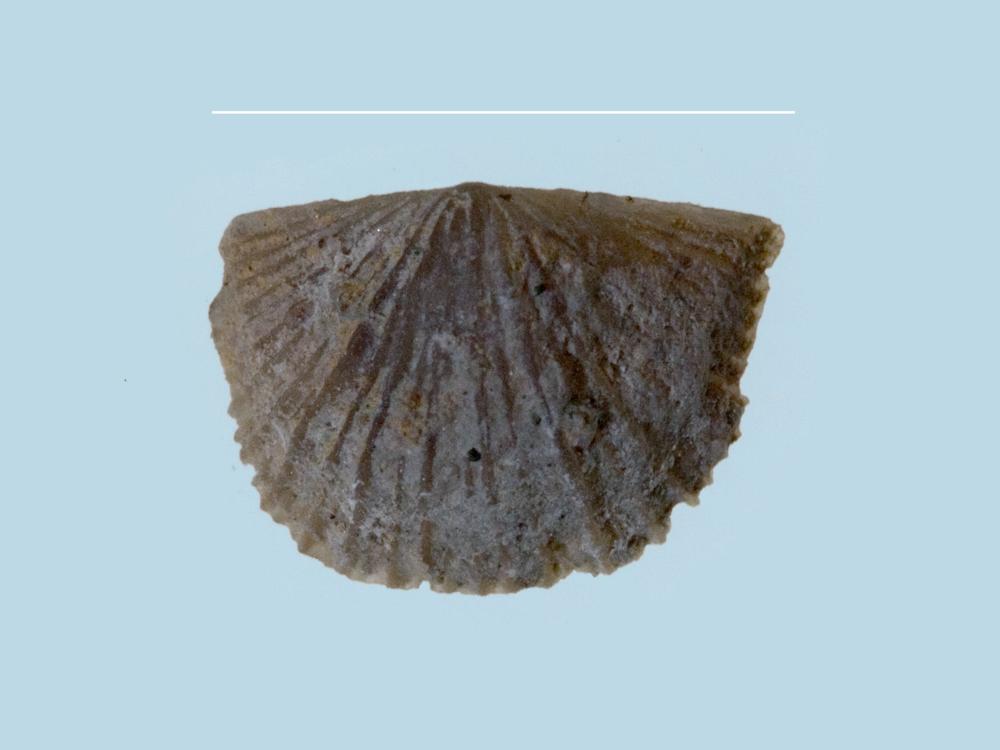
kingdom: Animalia
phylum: Brachiopoda
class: Rhynchonellata
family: Clitambonitidae
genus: Clitambonites
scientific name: Clitambonites
